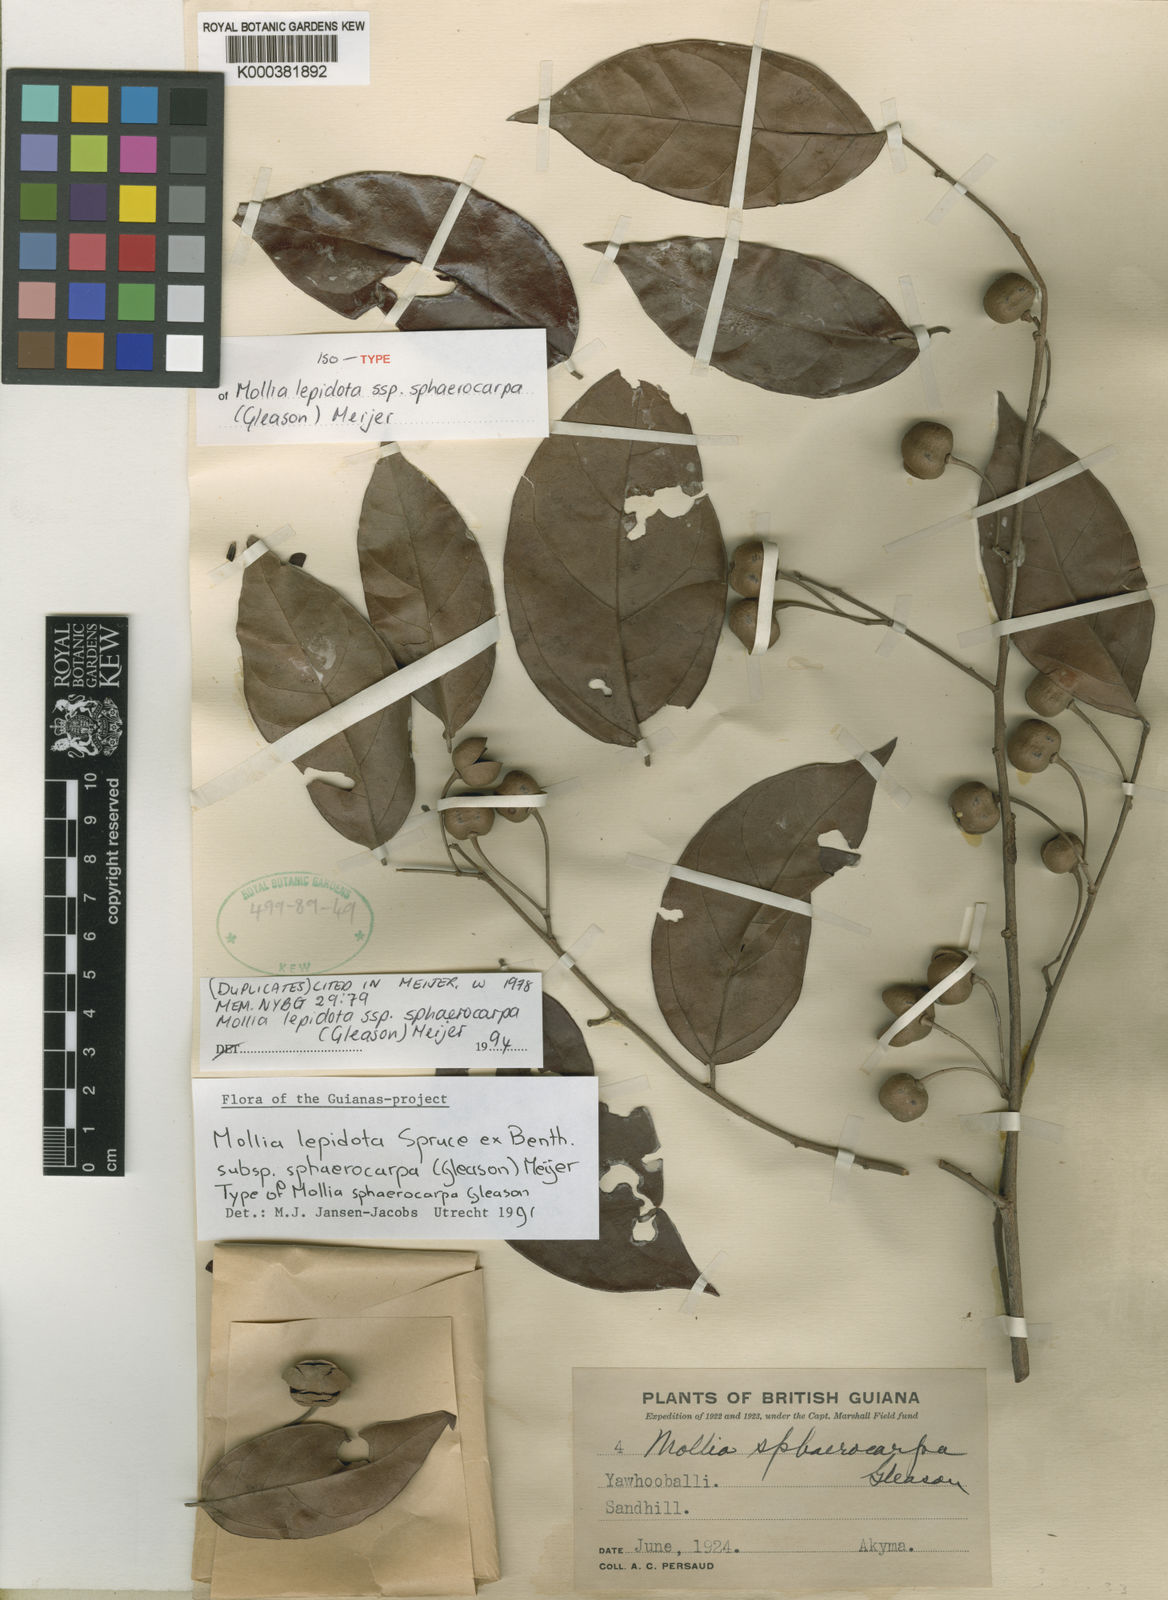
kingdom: Plantae
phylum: Tracheophyta
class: Magnoliopsida
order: Malvales
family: Malvaceae
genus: Mollia
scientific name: Mollia lepidota
